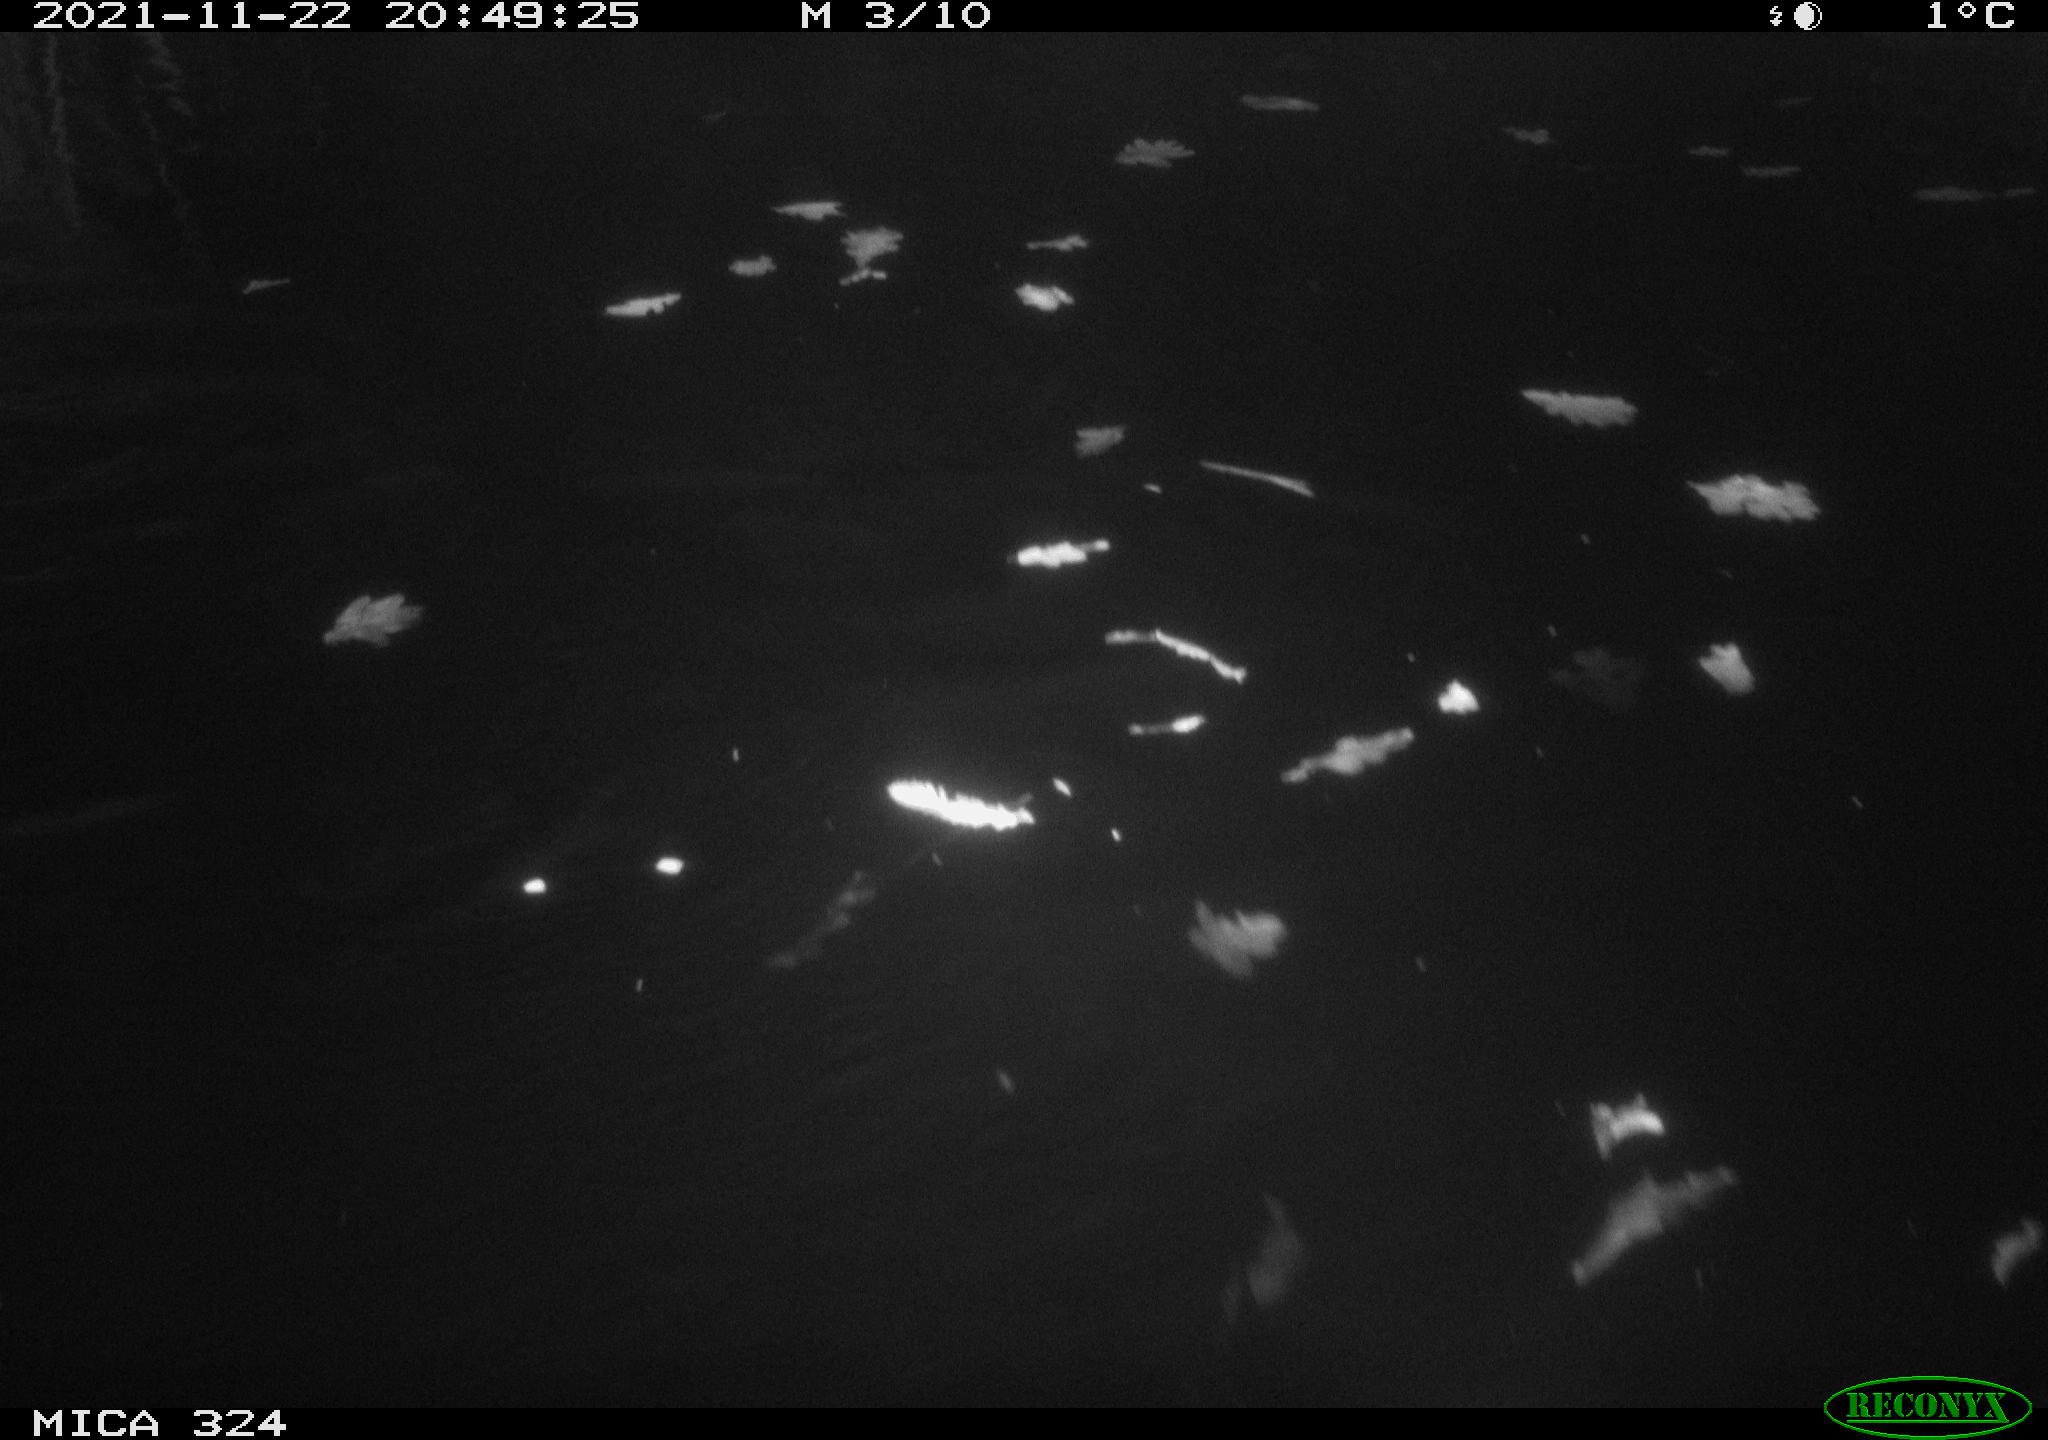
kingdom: Animalia
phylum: Chordata
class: Mammalia
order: Rodentia
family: Cricetidae
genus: Ondatra
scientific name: Ondatra zibethicus
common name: Muskrat
